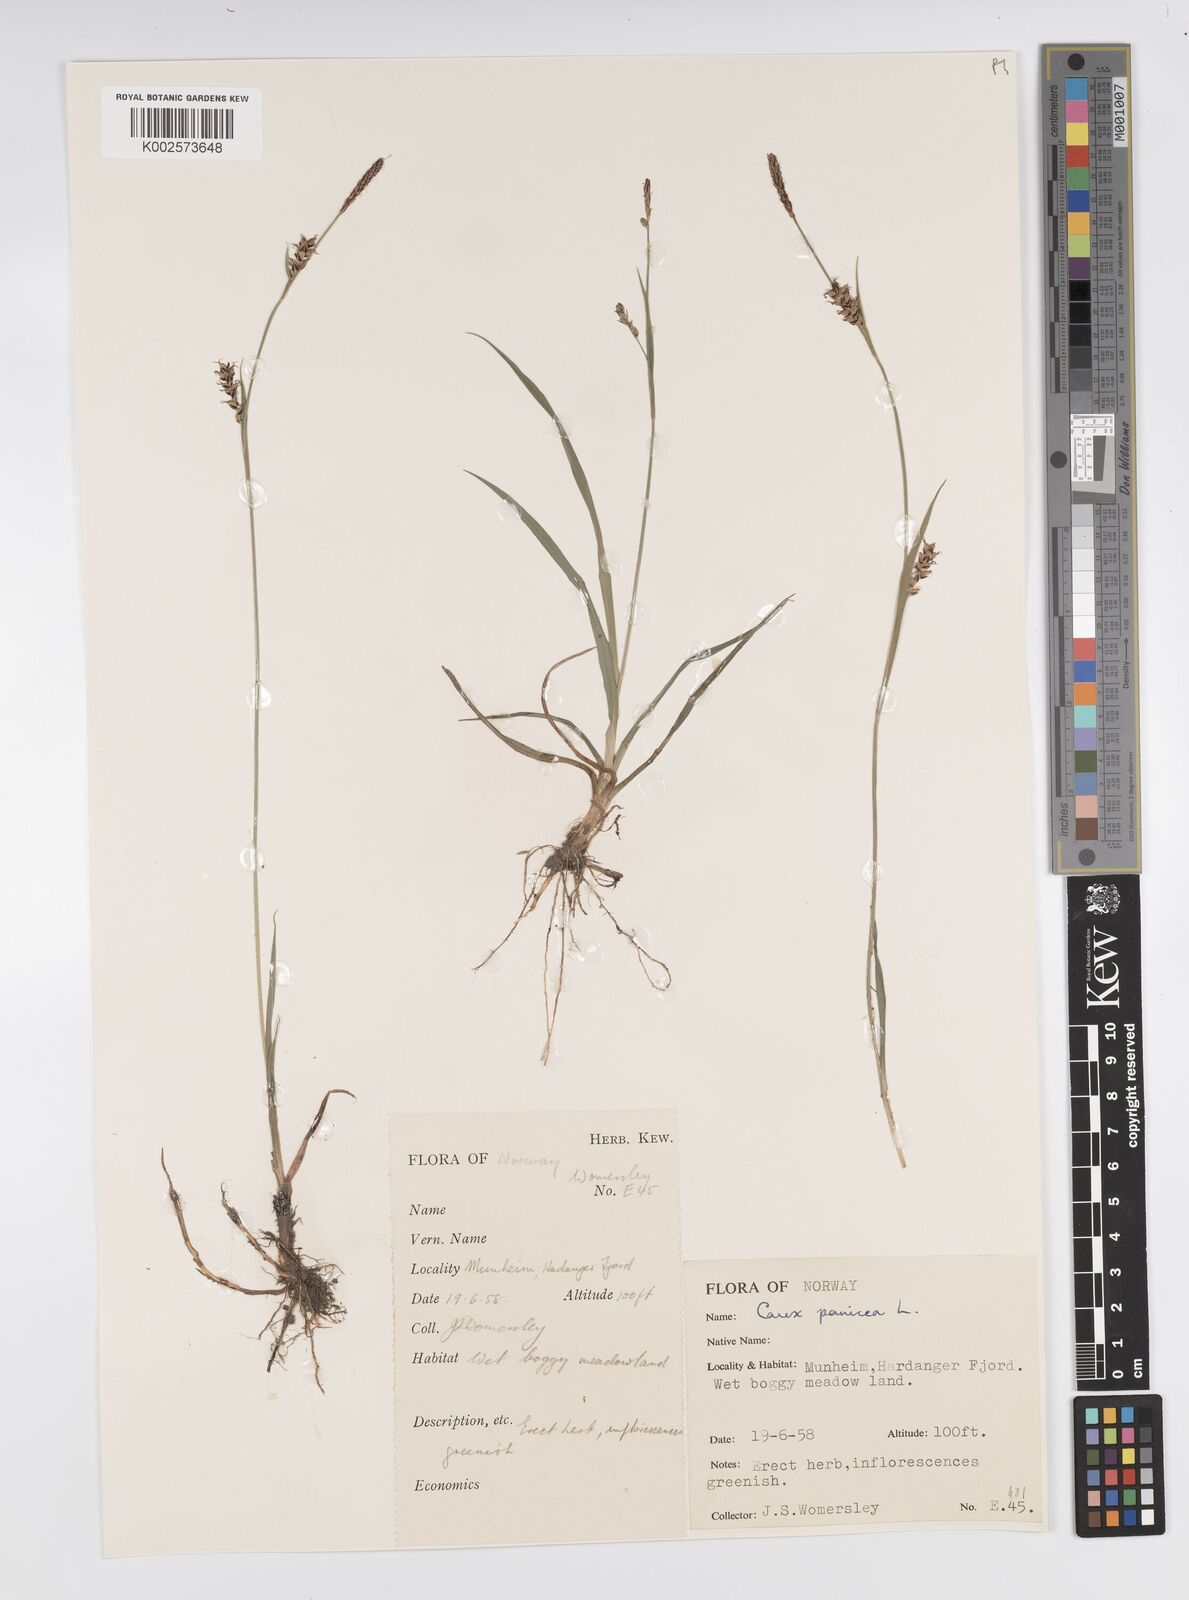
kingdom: Plantae
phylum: Tracheophyta
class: Liliopsida
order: Poales
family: Cyperaceae
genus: Carex
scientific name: Carex panicea
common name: Carnation sedge
